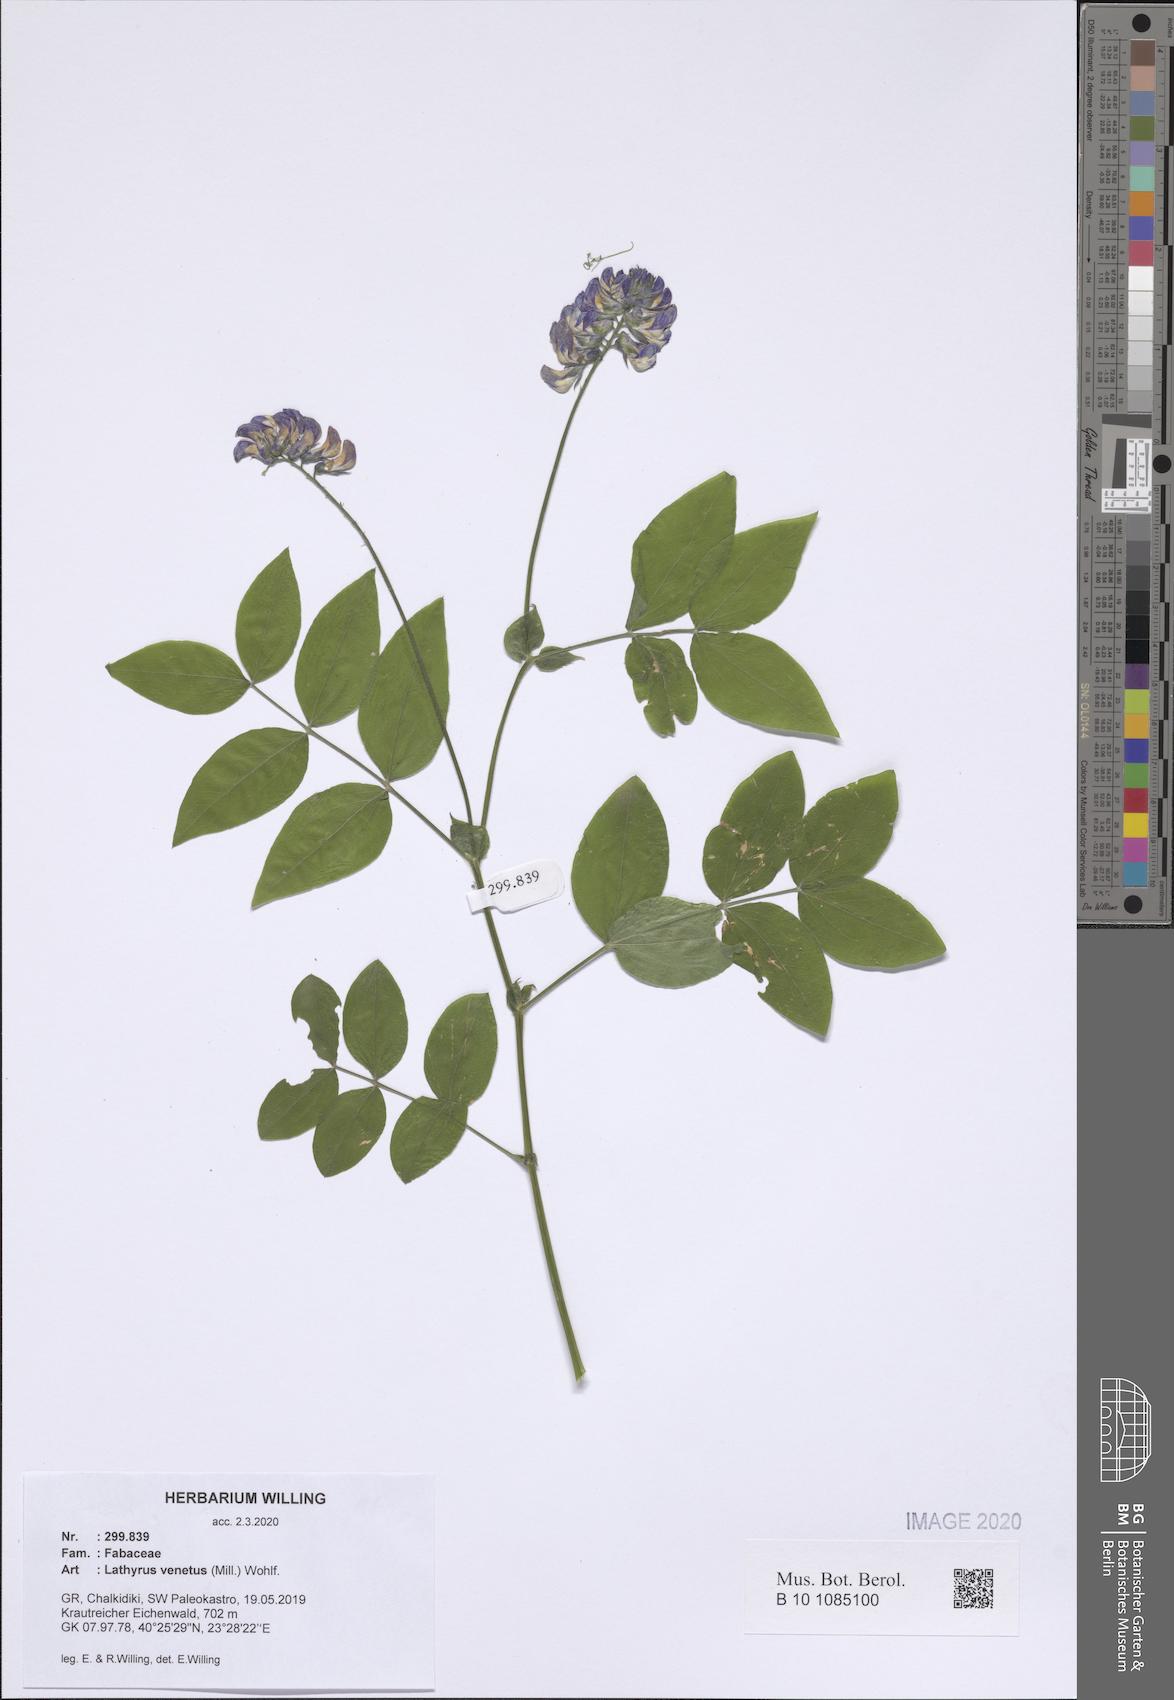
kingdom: Plantae
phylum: Tracheophyta
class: Magnoliopsida
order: Fabales
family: Fabaceae
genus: Lathyrus
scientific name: Lathyrus venetus
